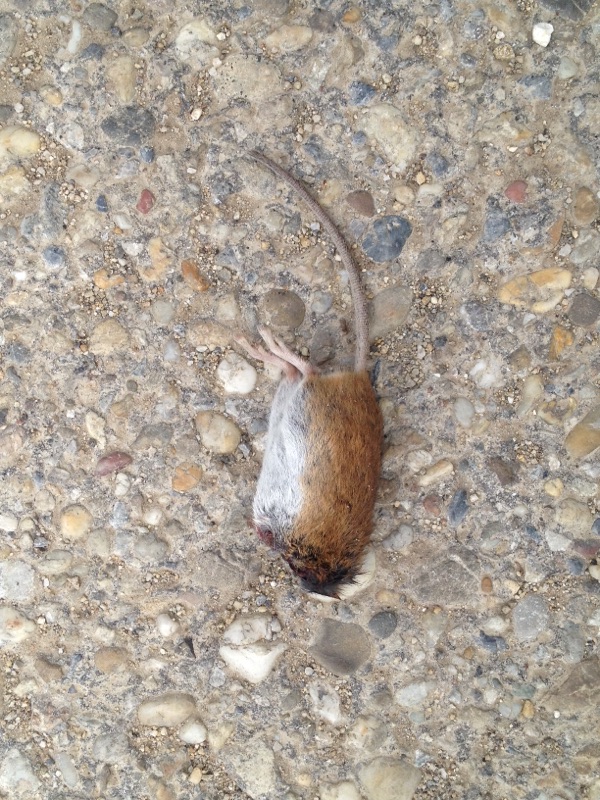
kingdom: Animalia
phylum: Chordata
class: Mammalia
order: Rodentia
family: Muridae
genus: Apodemus
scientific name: Apodemus
